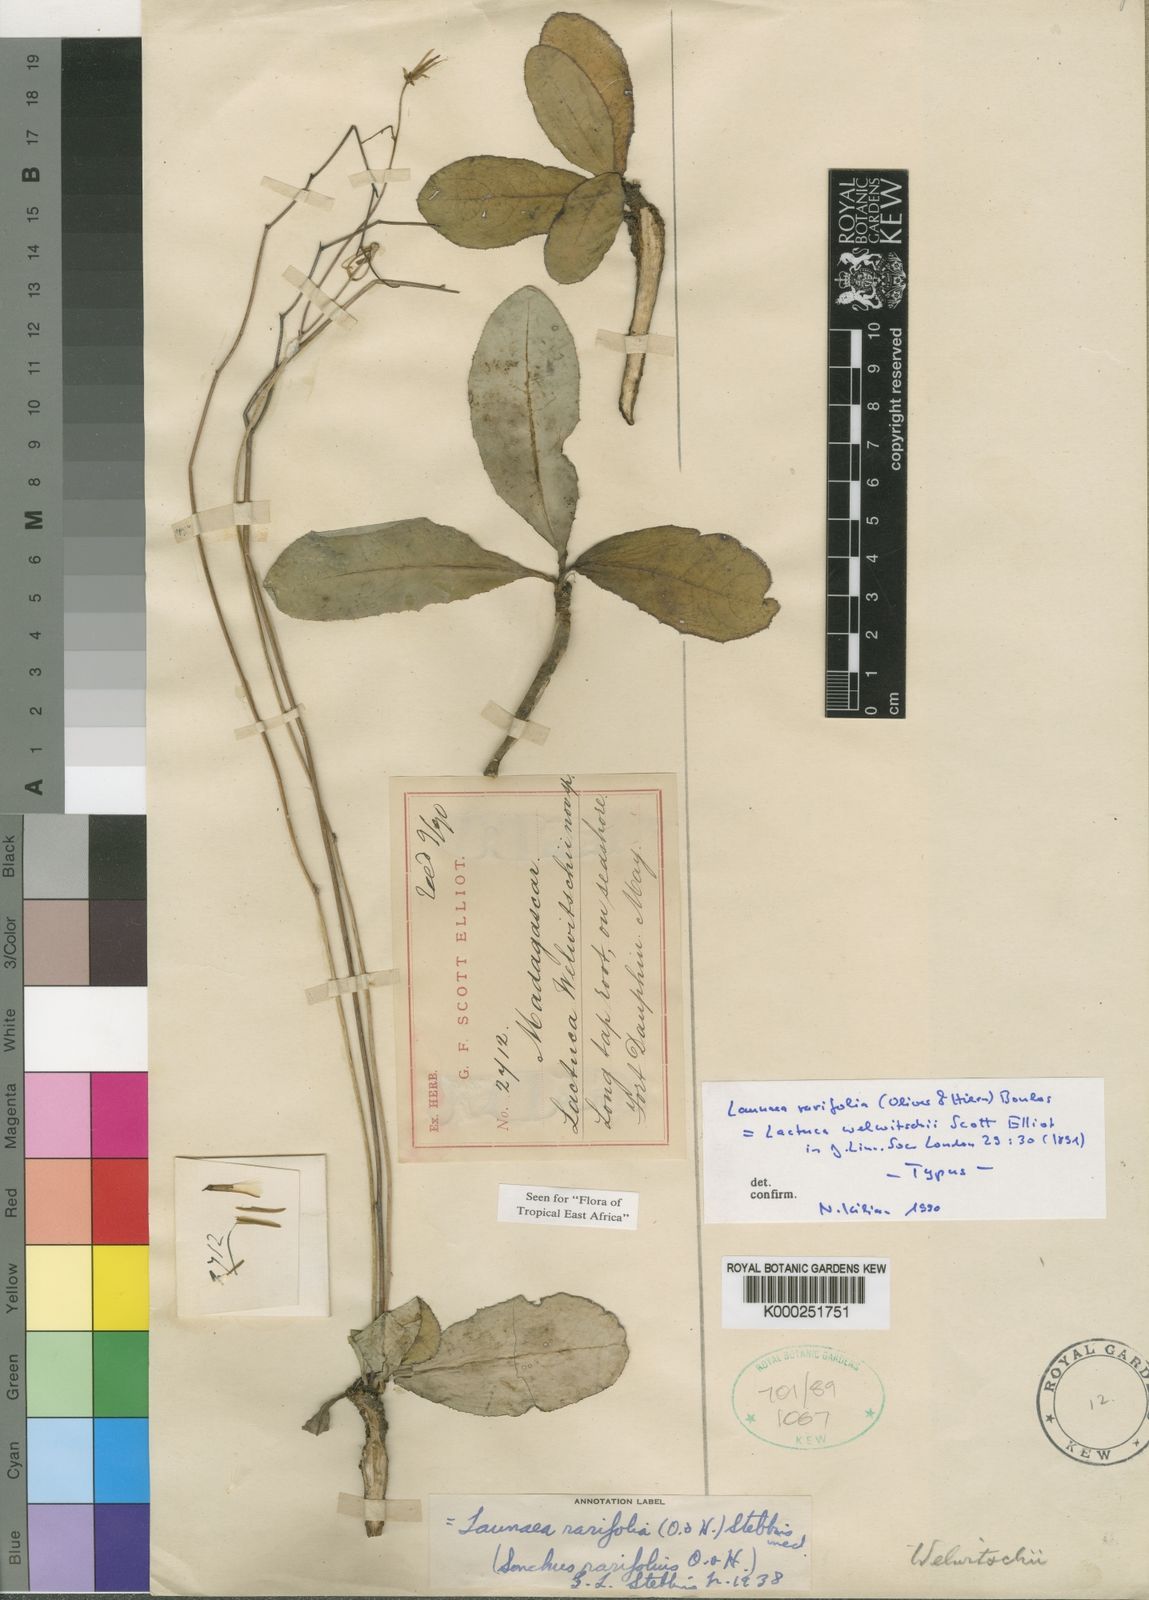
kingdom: Plantae
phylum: Tracheophyta
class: Magnoliopsida
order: Asterales
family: Asteraceae
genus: Launaea
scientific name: Launaea rarifolia
